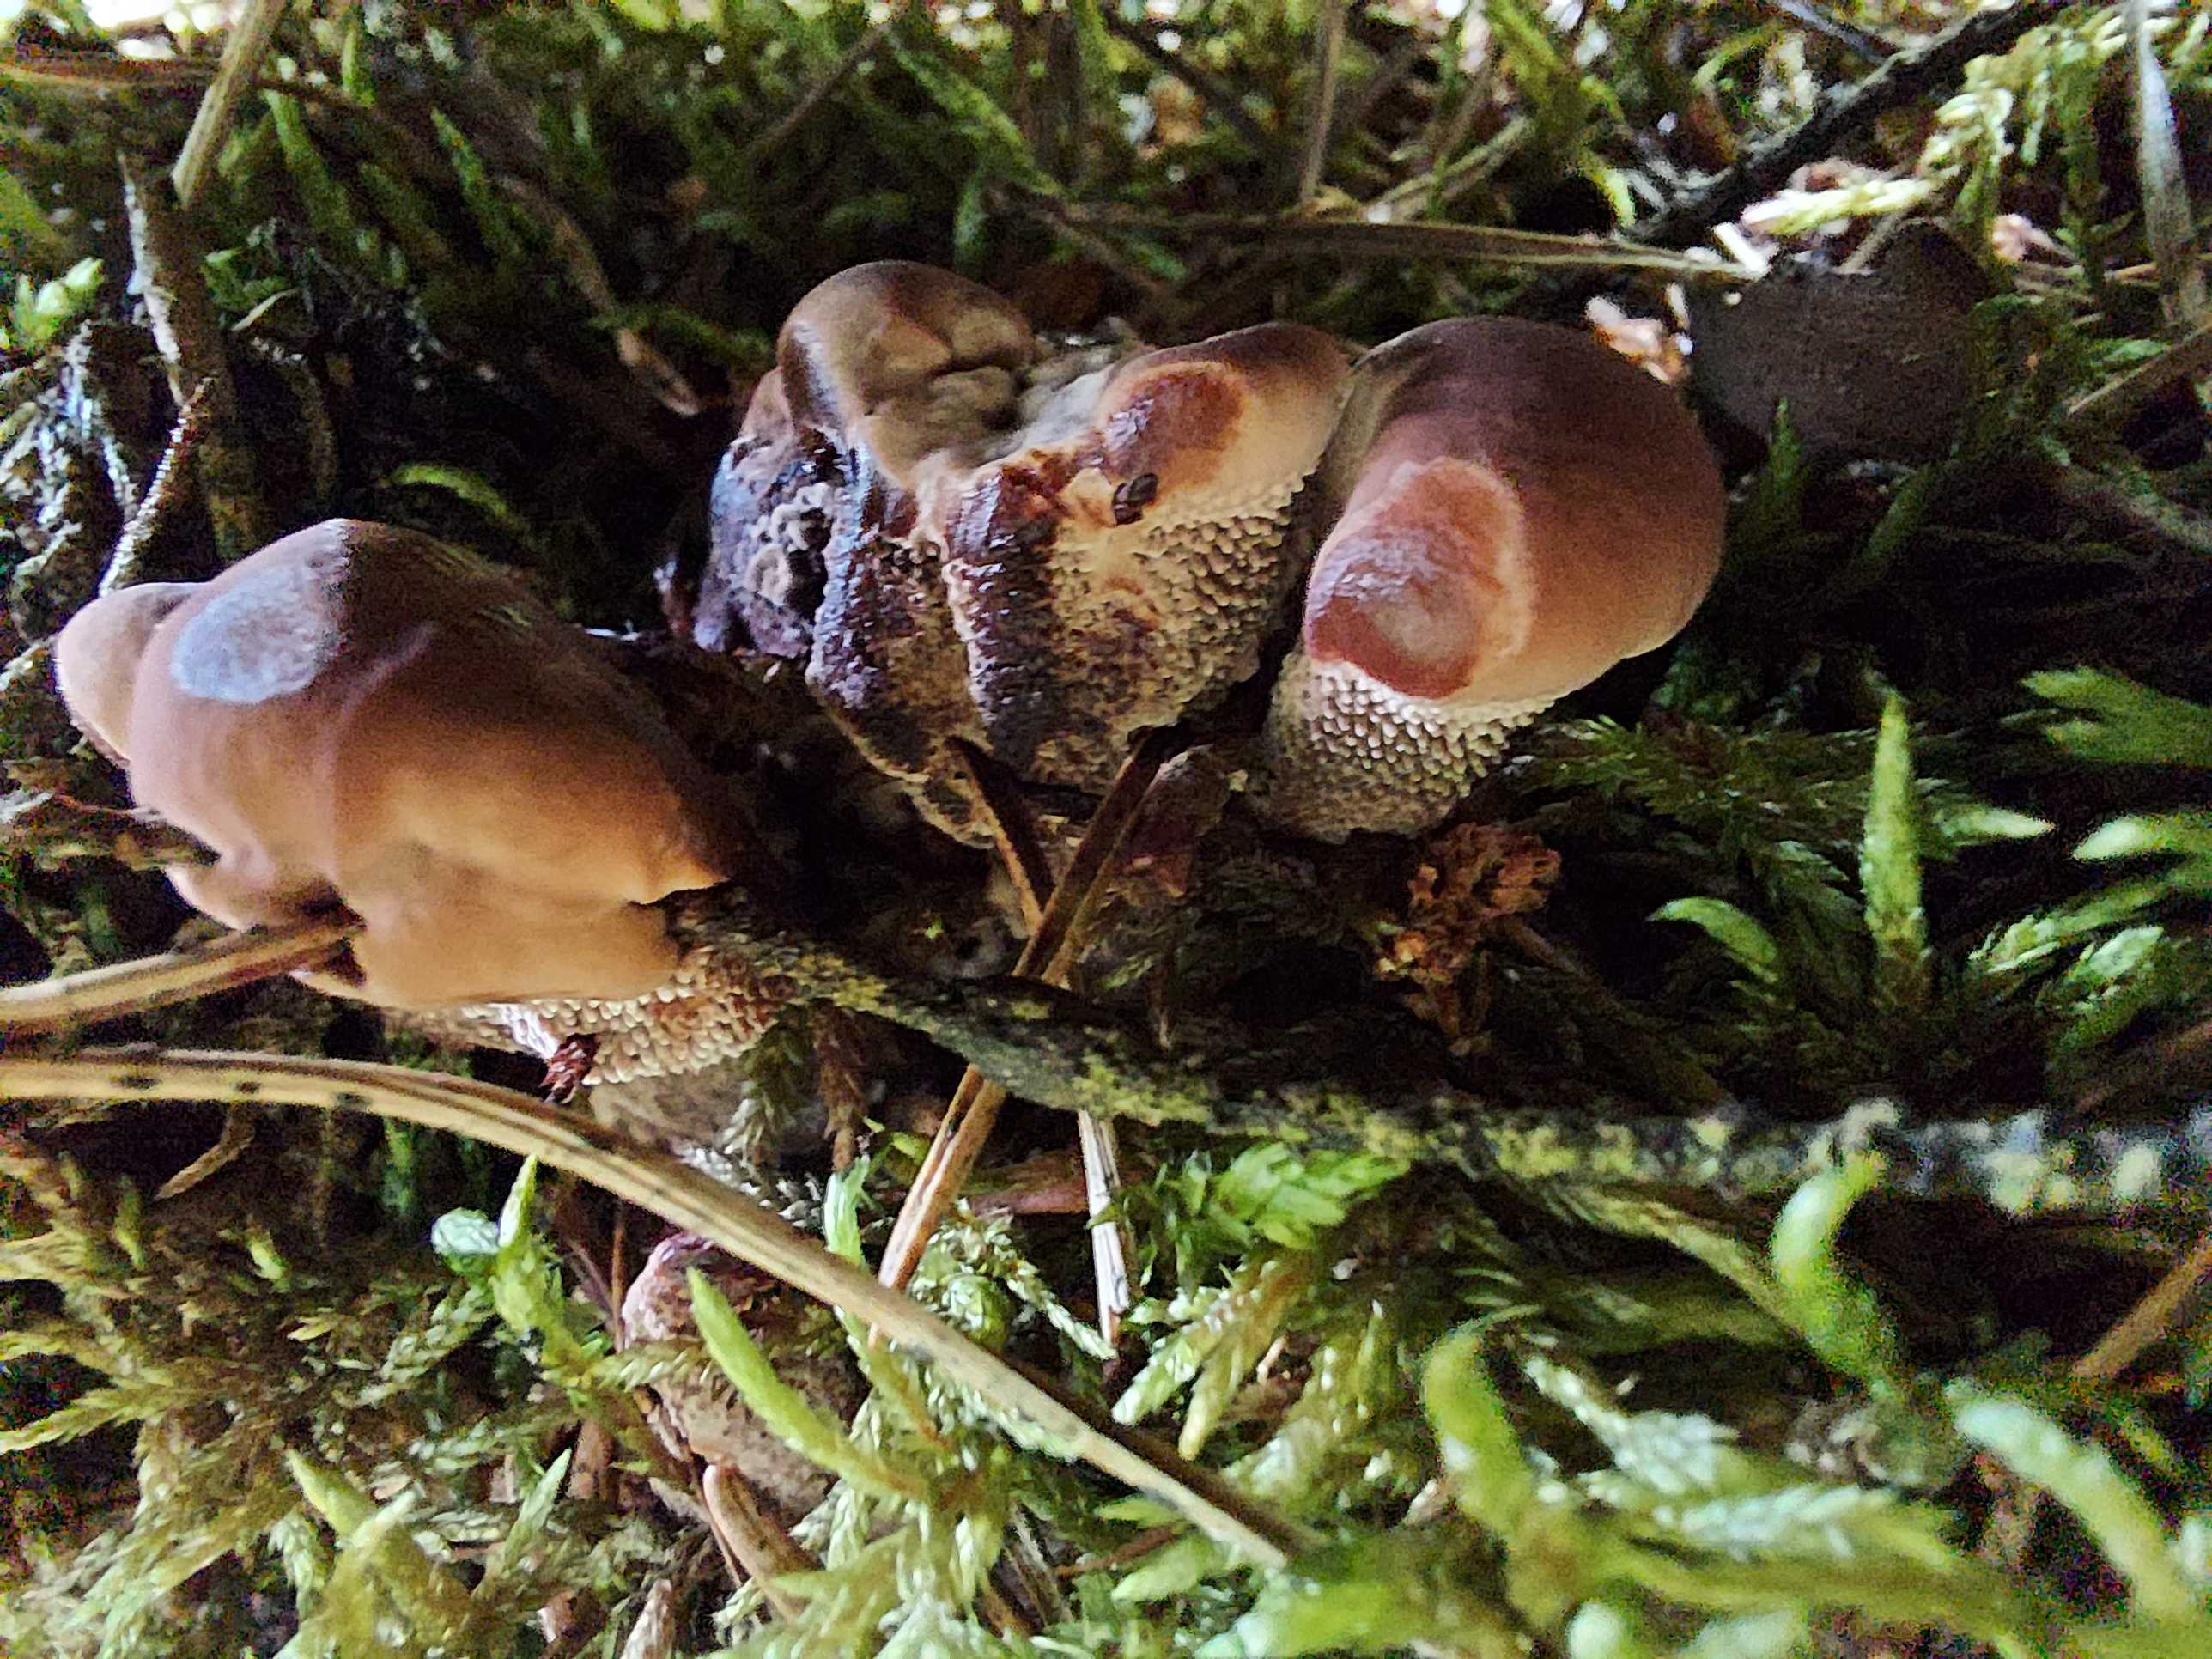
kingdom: Fungi
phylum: Basidiomycota
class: Agaricomycetes
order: Thelephorales
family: Bankeraceae
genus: Hydnellum
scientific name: Hydnellum
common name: korkpigsvamp
